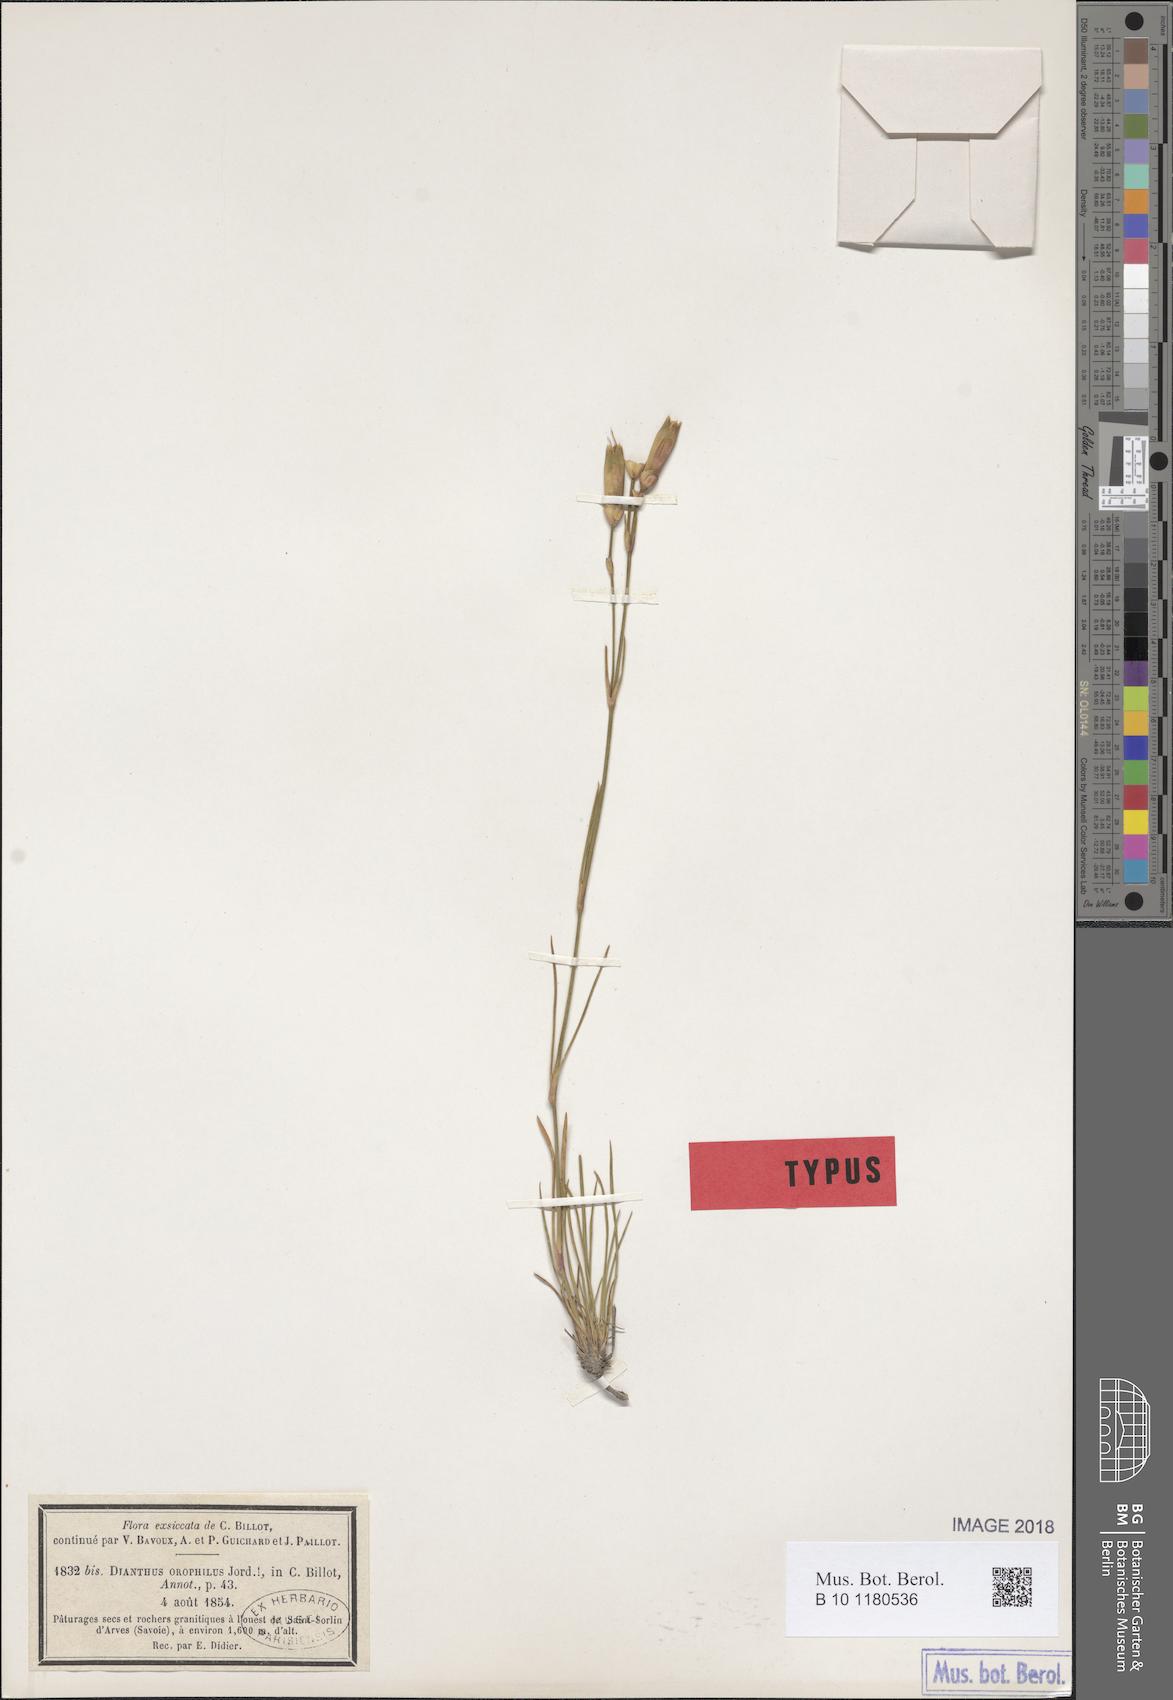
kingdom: Plantae
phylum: Tracheophyta
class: Magnoliopsida
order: Caryophyllales
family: Caryophyllaceae
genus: Dianthus
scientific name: Dianthus sylvestris
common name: Wood pink
